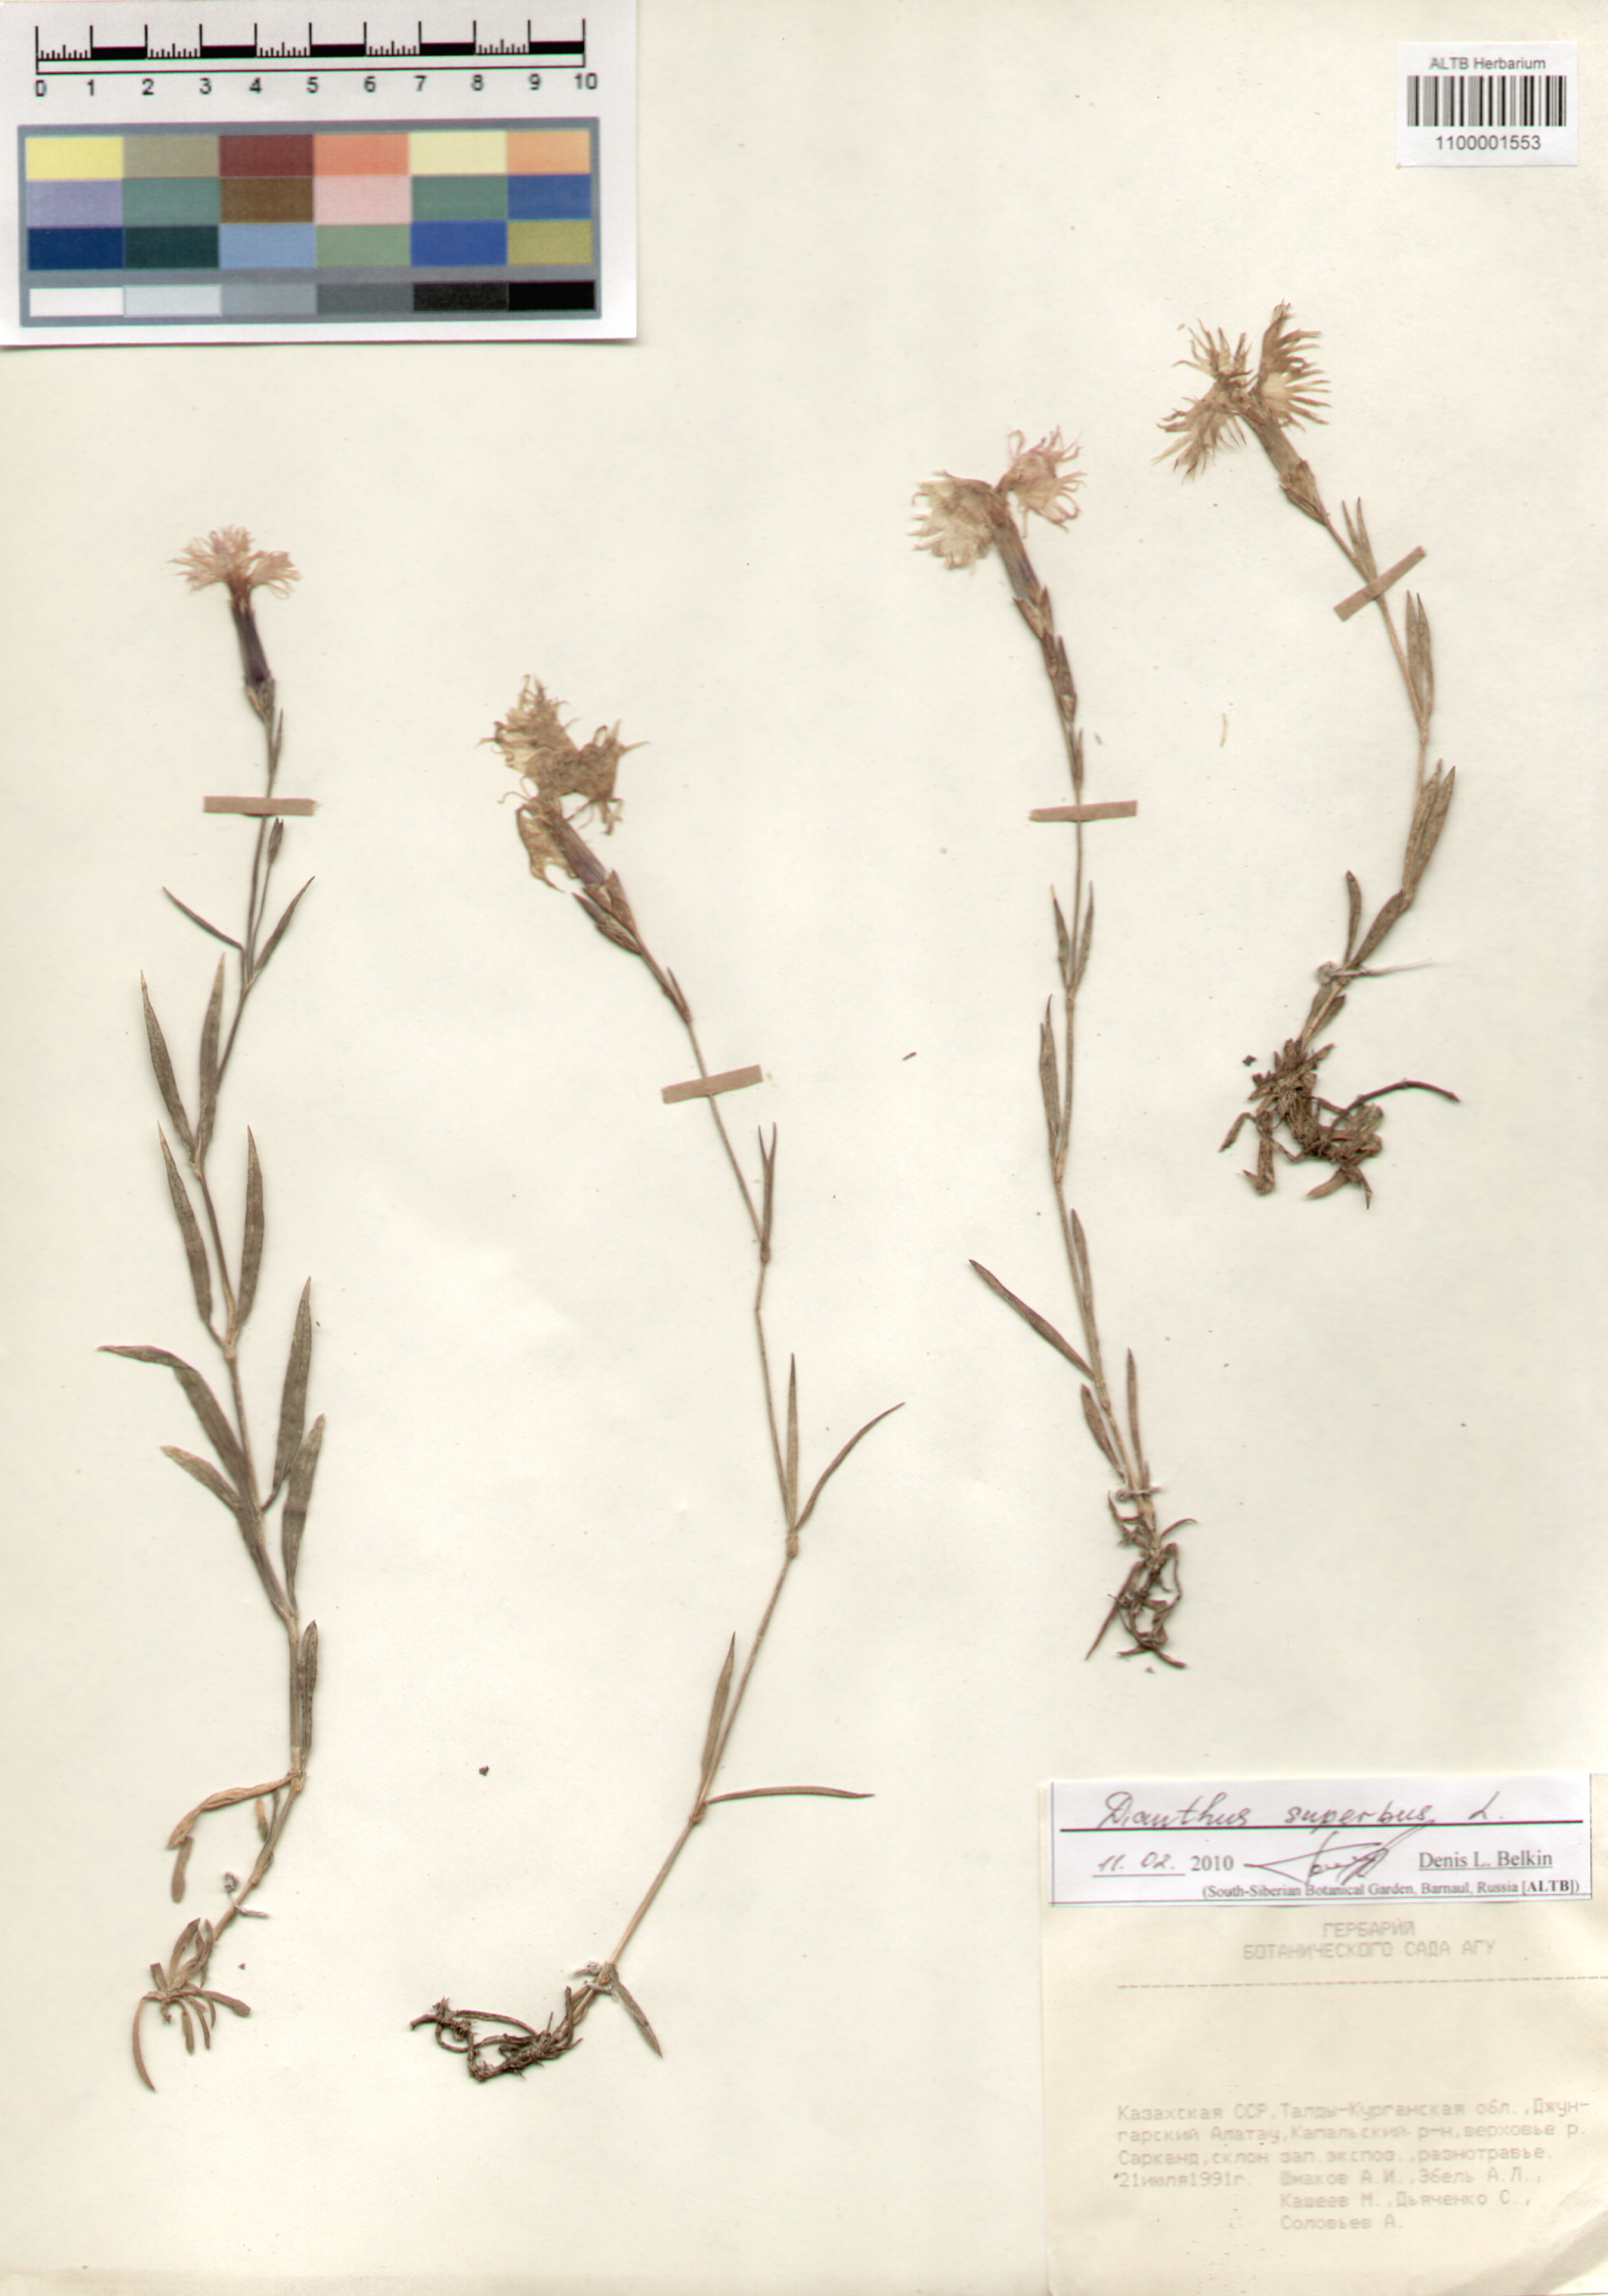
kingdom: Plantae
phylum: Tracheophyta
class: Magnoliopsida
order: Caryophyllales
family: Caryophyllaceae
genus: Dianthus
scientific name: Dianthus superbus
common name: Fringed pink
